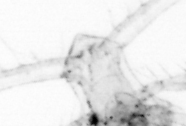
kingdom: Animalia
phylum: Arthropoda
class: Copepoda
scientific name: Copepoda
